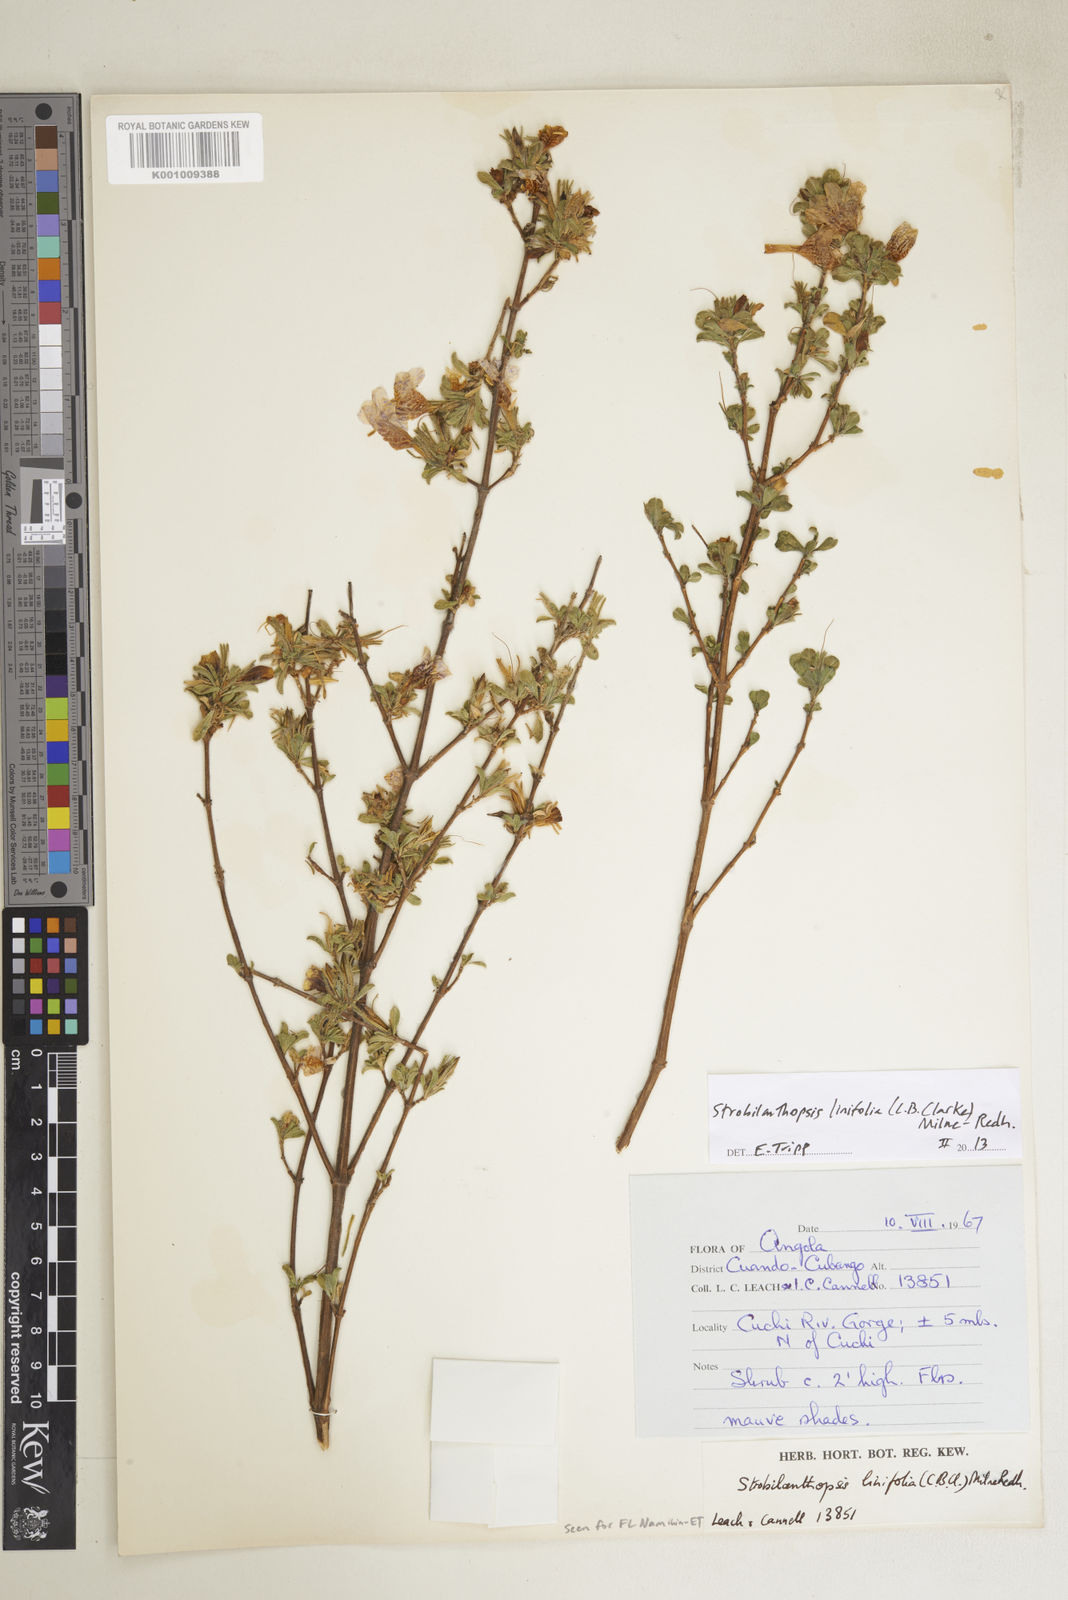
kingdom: Plantae
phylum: Tracheophyta
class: Magnoliopsida
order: Lamiales
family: Acanthaceae
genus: Strobilanthopsis
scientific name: Strobilanthopsis linifolia
